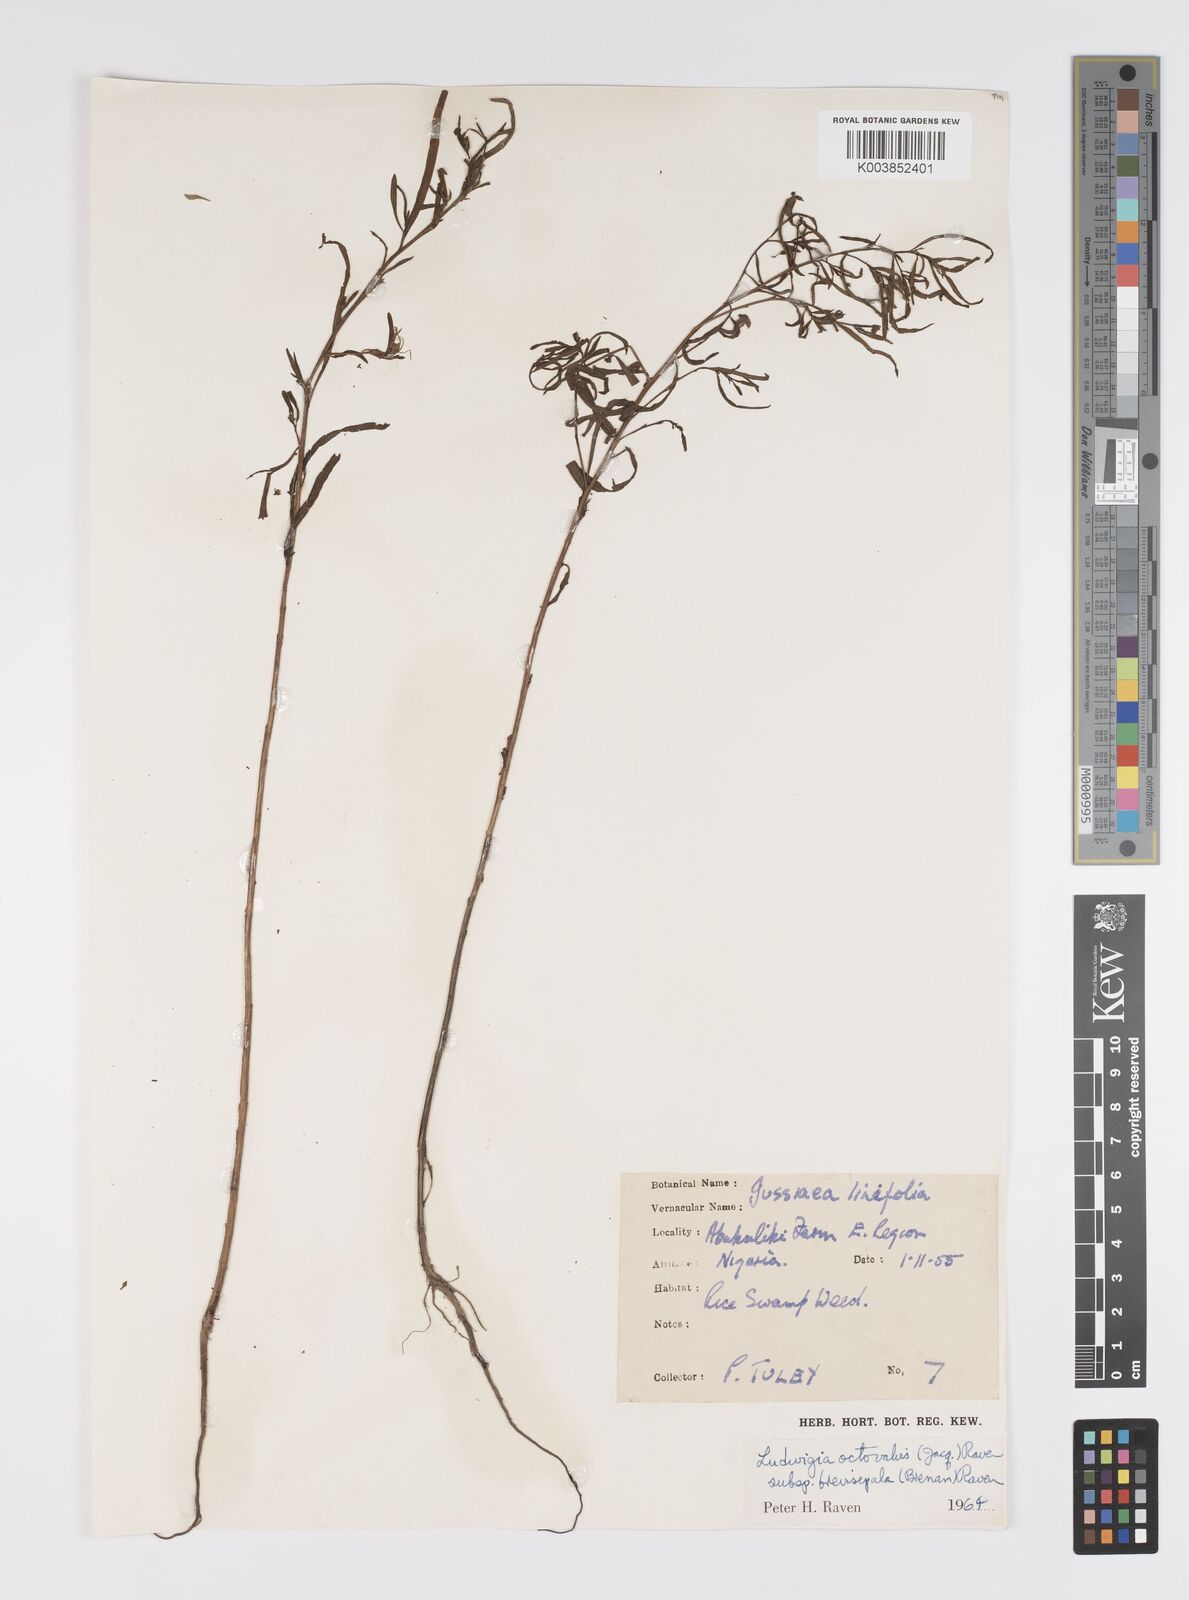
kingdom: Plantae
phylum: Tracheophyta
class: Magnoliopsida
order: Myrtales
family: Onagraceae
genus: Ludwigia
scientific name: Ludwigia octovalvis
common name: Water-primrose
